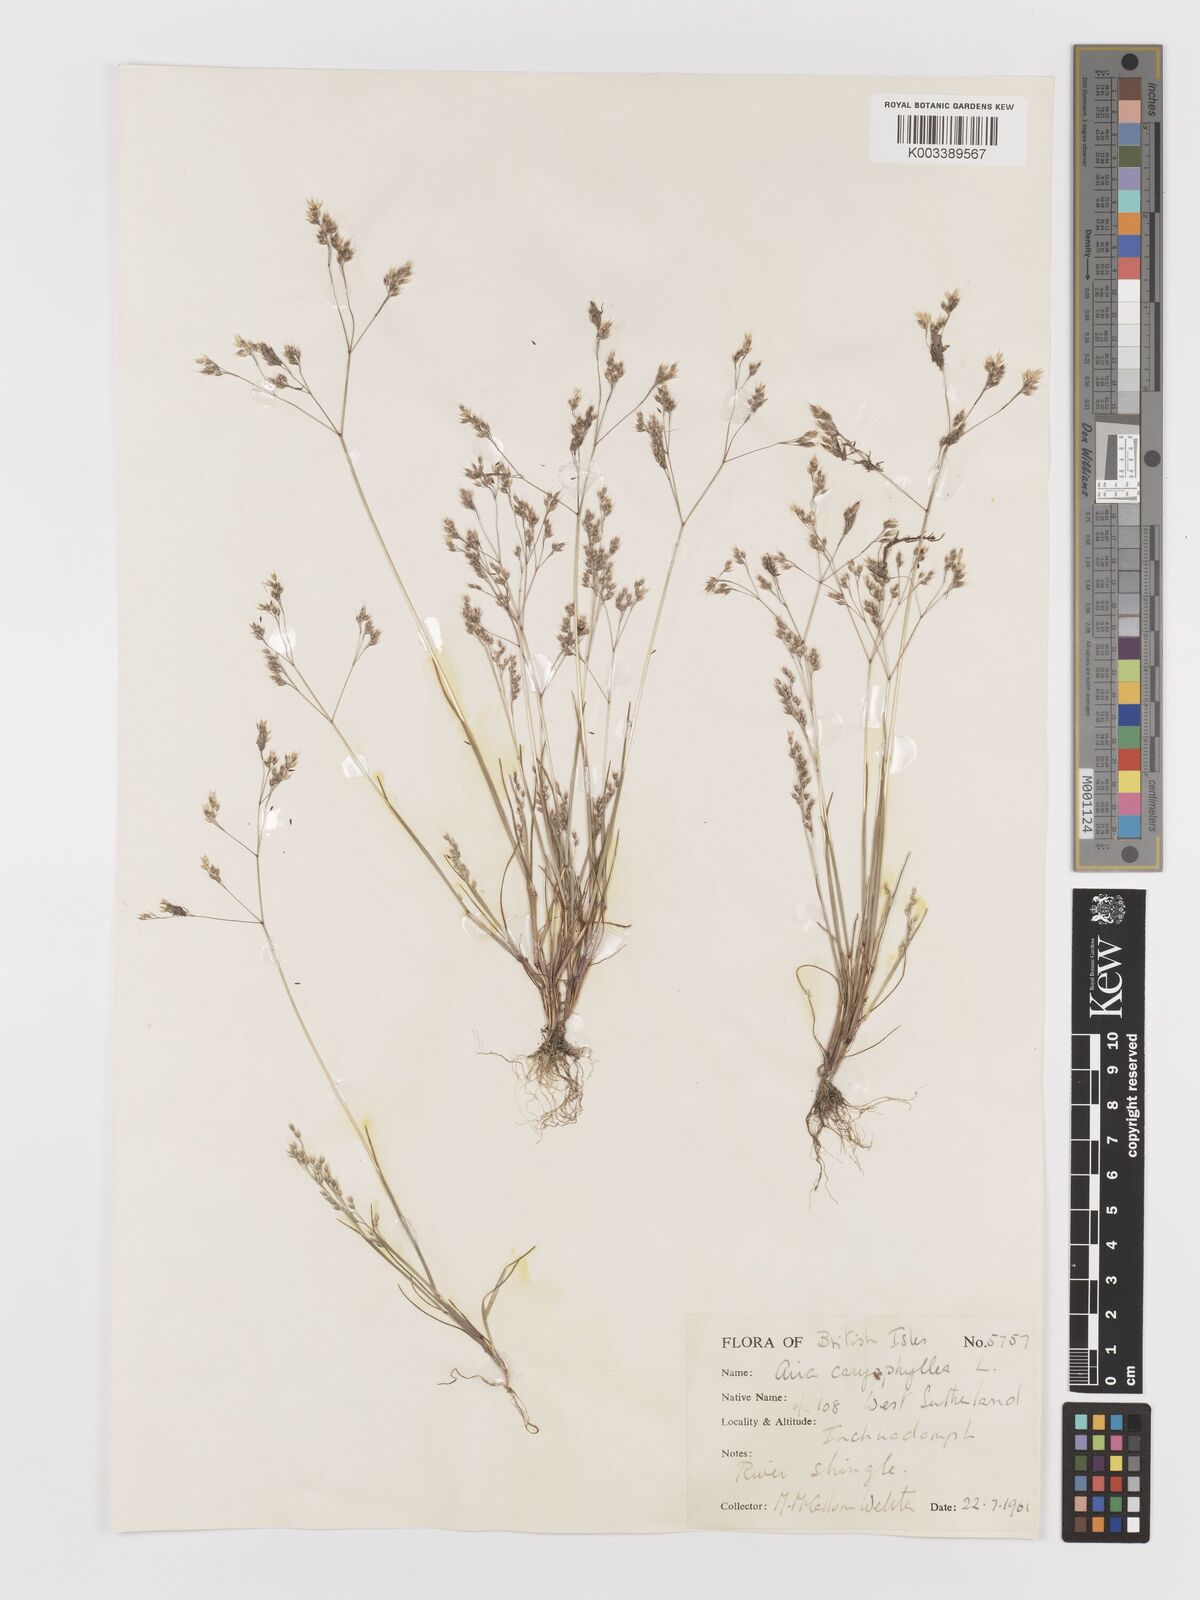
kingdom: Plantae
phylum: Tracheophyta
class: Liliopsida
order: Poales
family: Poaceae
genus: Aira
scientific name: Aira caryophyllea
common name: Silver hairgrass
